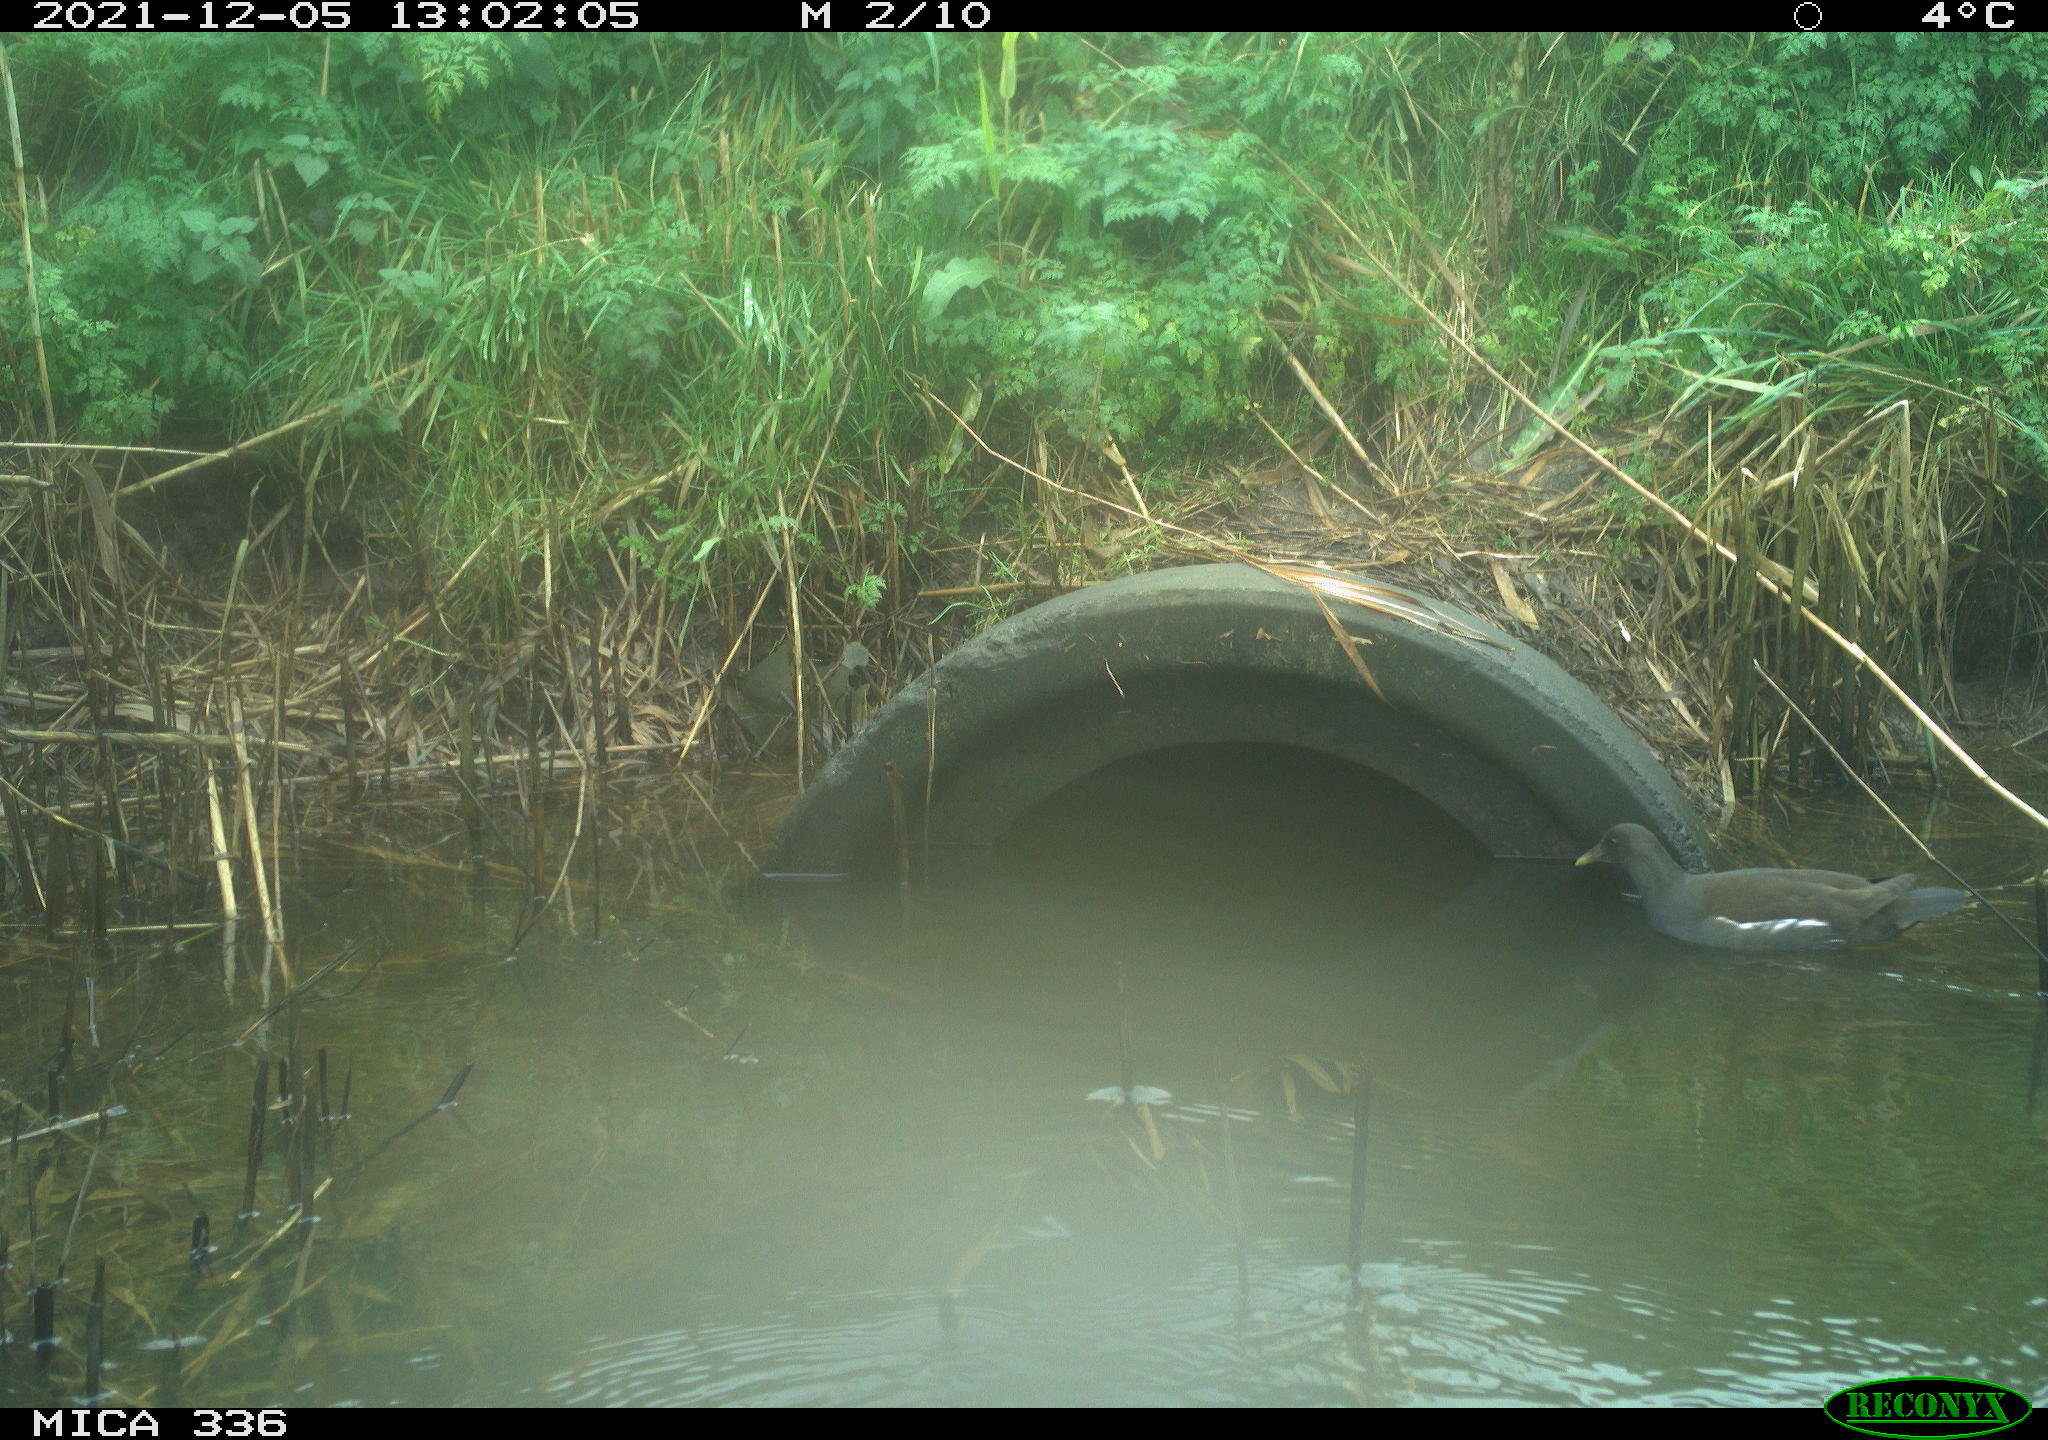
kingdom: Animalia
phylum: Chordata
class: Aves
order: Gruiformes
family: Rallidae
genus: Gallinula
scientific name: Gallinula chloropus
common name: Common moorhen
